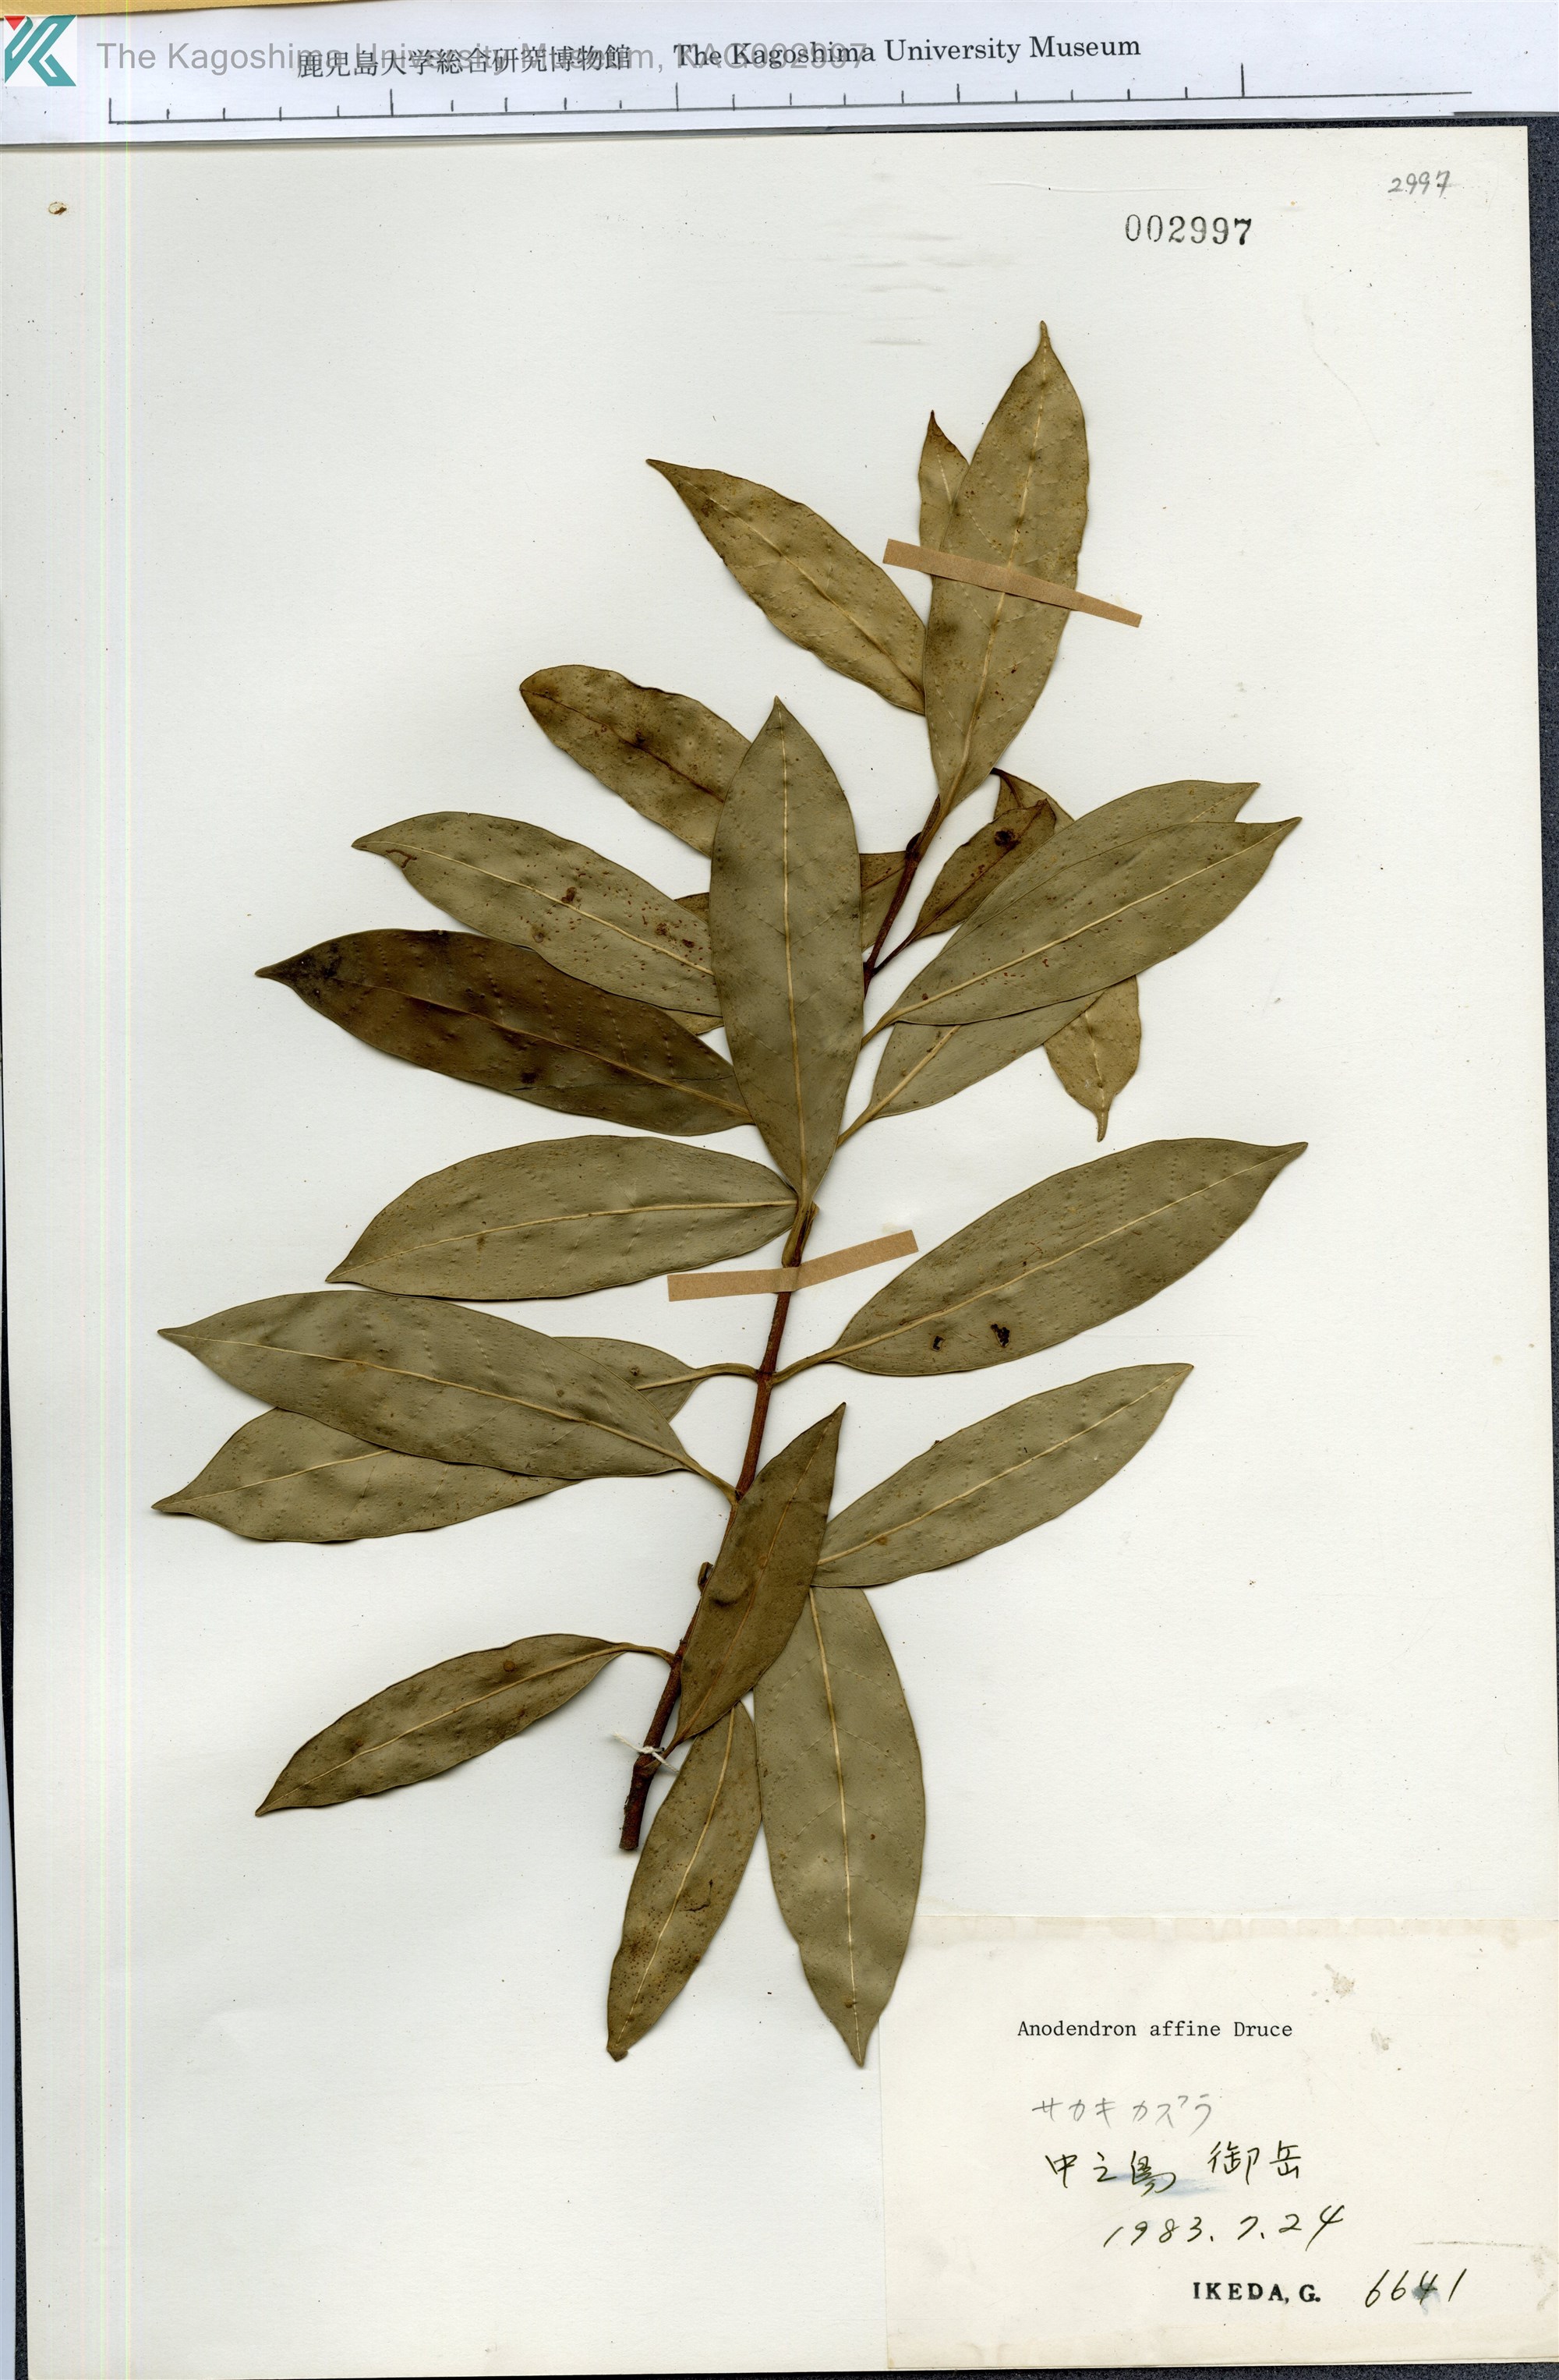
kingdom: Plantae
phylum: Tracheophyta
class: Magnoliopsida
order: Gentianales
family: Apocynaceae
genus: Anodendron
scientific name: Anodendron affine
